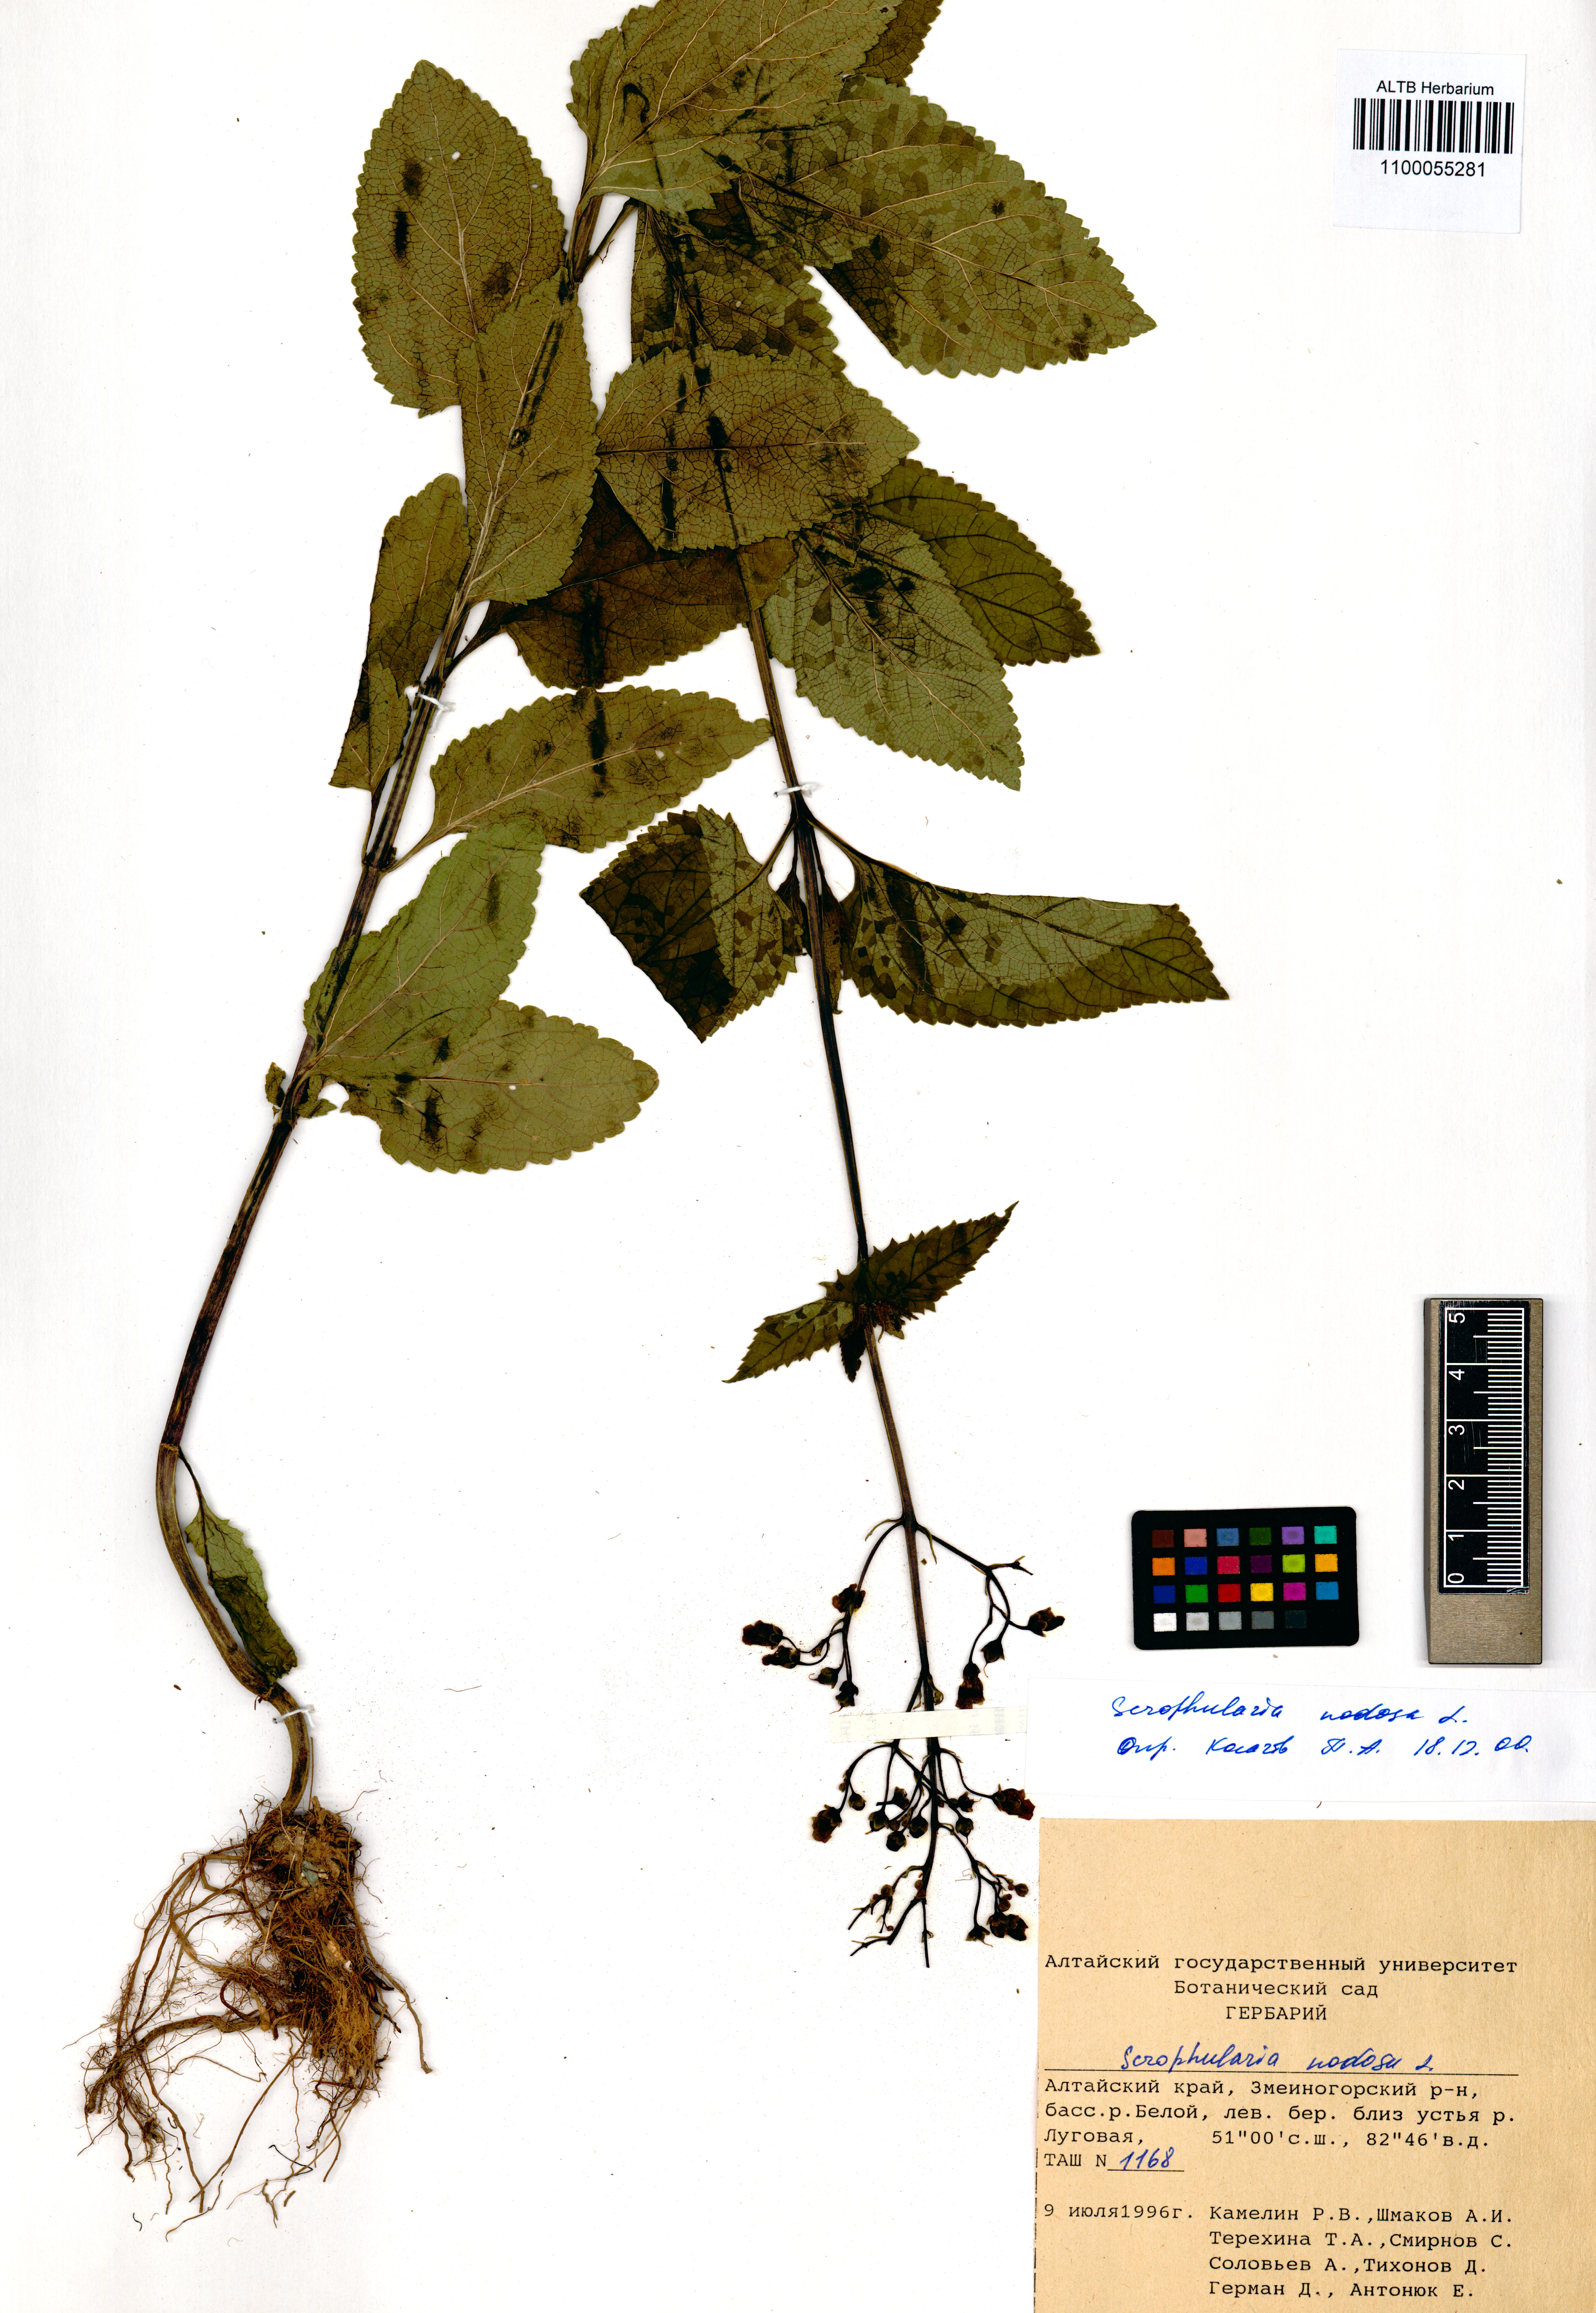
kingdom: Plantae
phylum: Tracheophyta
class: Magnoliopsida
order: Lamiales
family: Scrophulariaceae
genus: Scrophularia
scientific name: Scrophularia nodosa
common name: Common figwort
